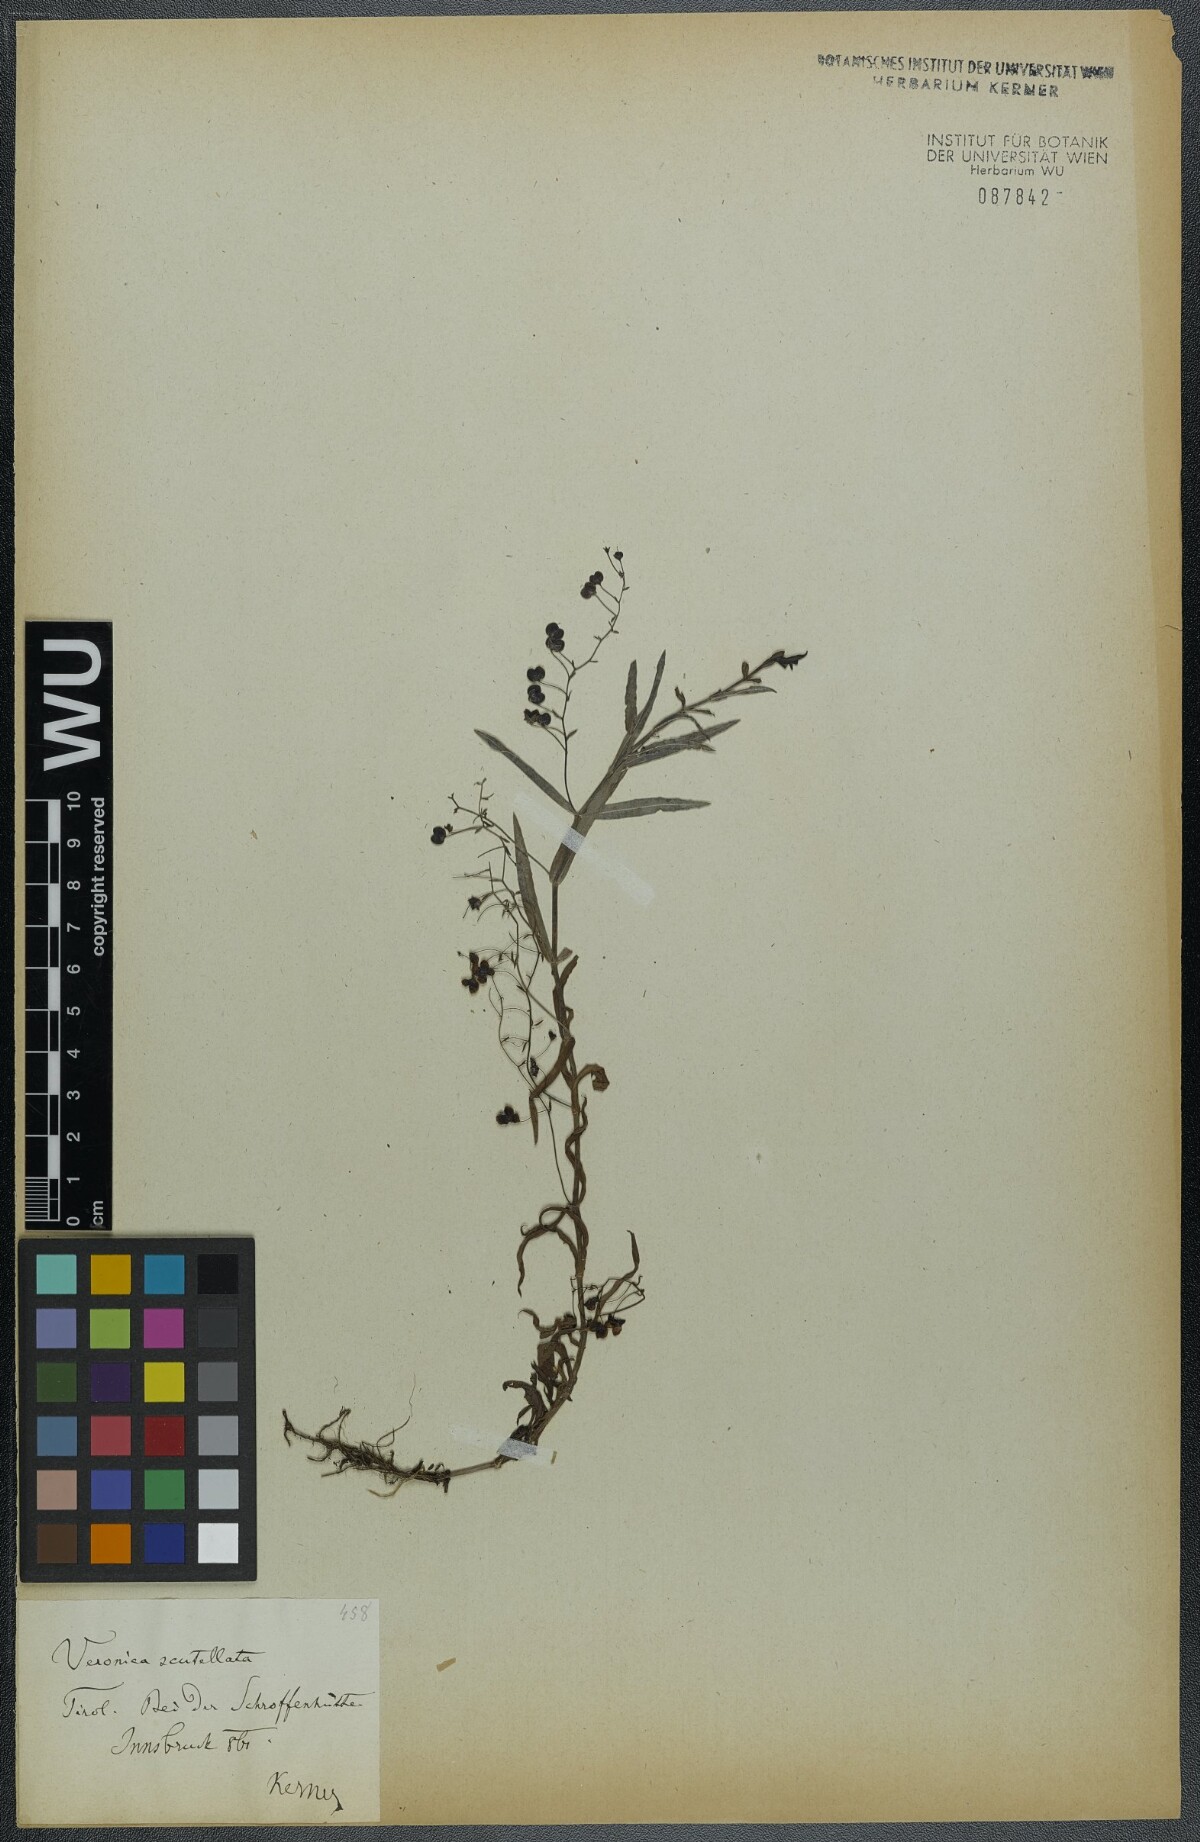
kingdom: Plantae
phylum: Tracheophyta
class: Magnoliopsida
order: Lamiales
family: Plantaginaceae
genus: Veronica
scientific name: Veronica scutellata
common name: Marsh speedwell
